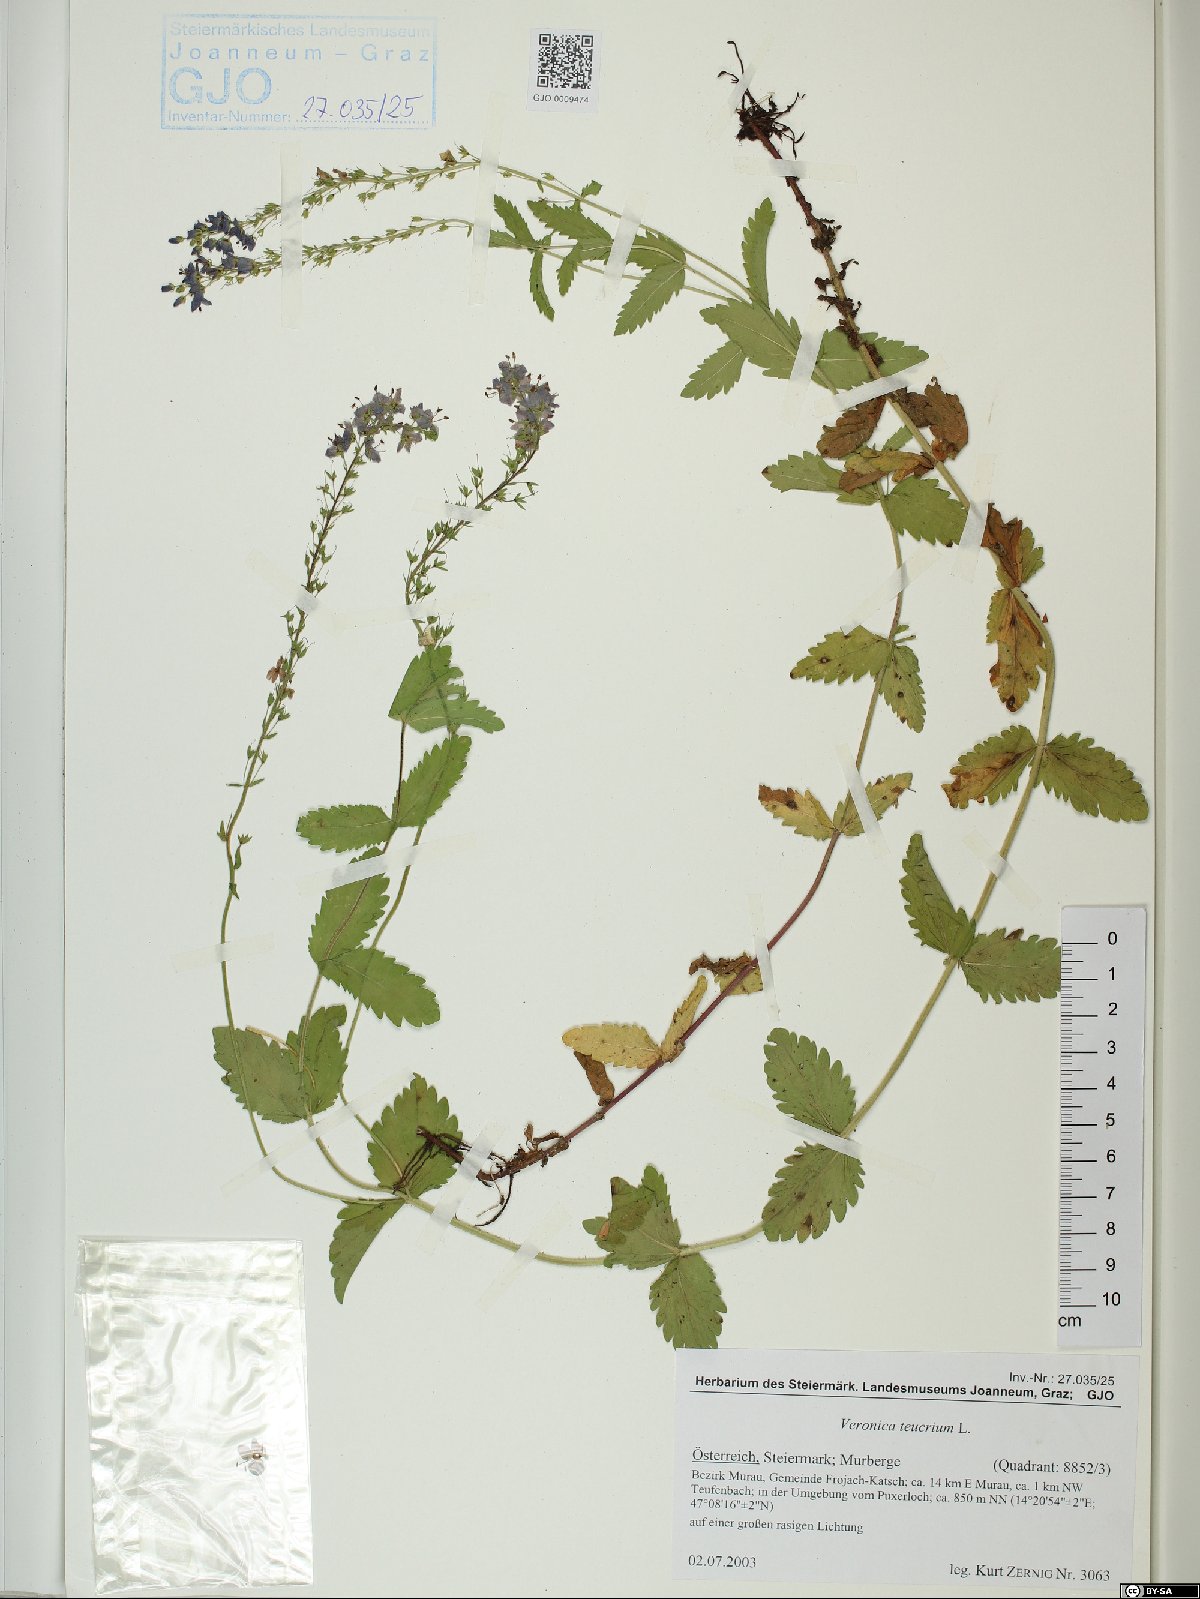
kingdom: Plantae
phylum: Tracheophyta
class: Magnoliopsida
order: Lamiales
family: Plantaginaceae
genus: Veronica
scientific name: Veronica teucrium
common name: Large speedwell
